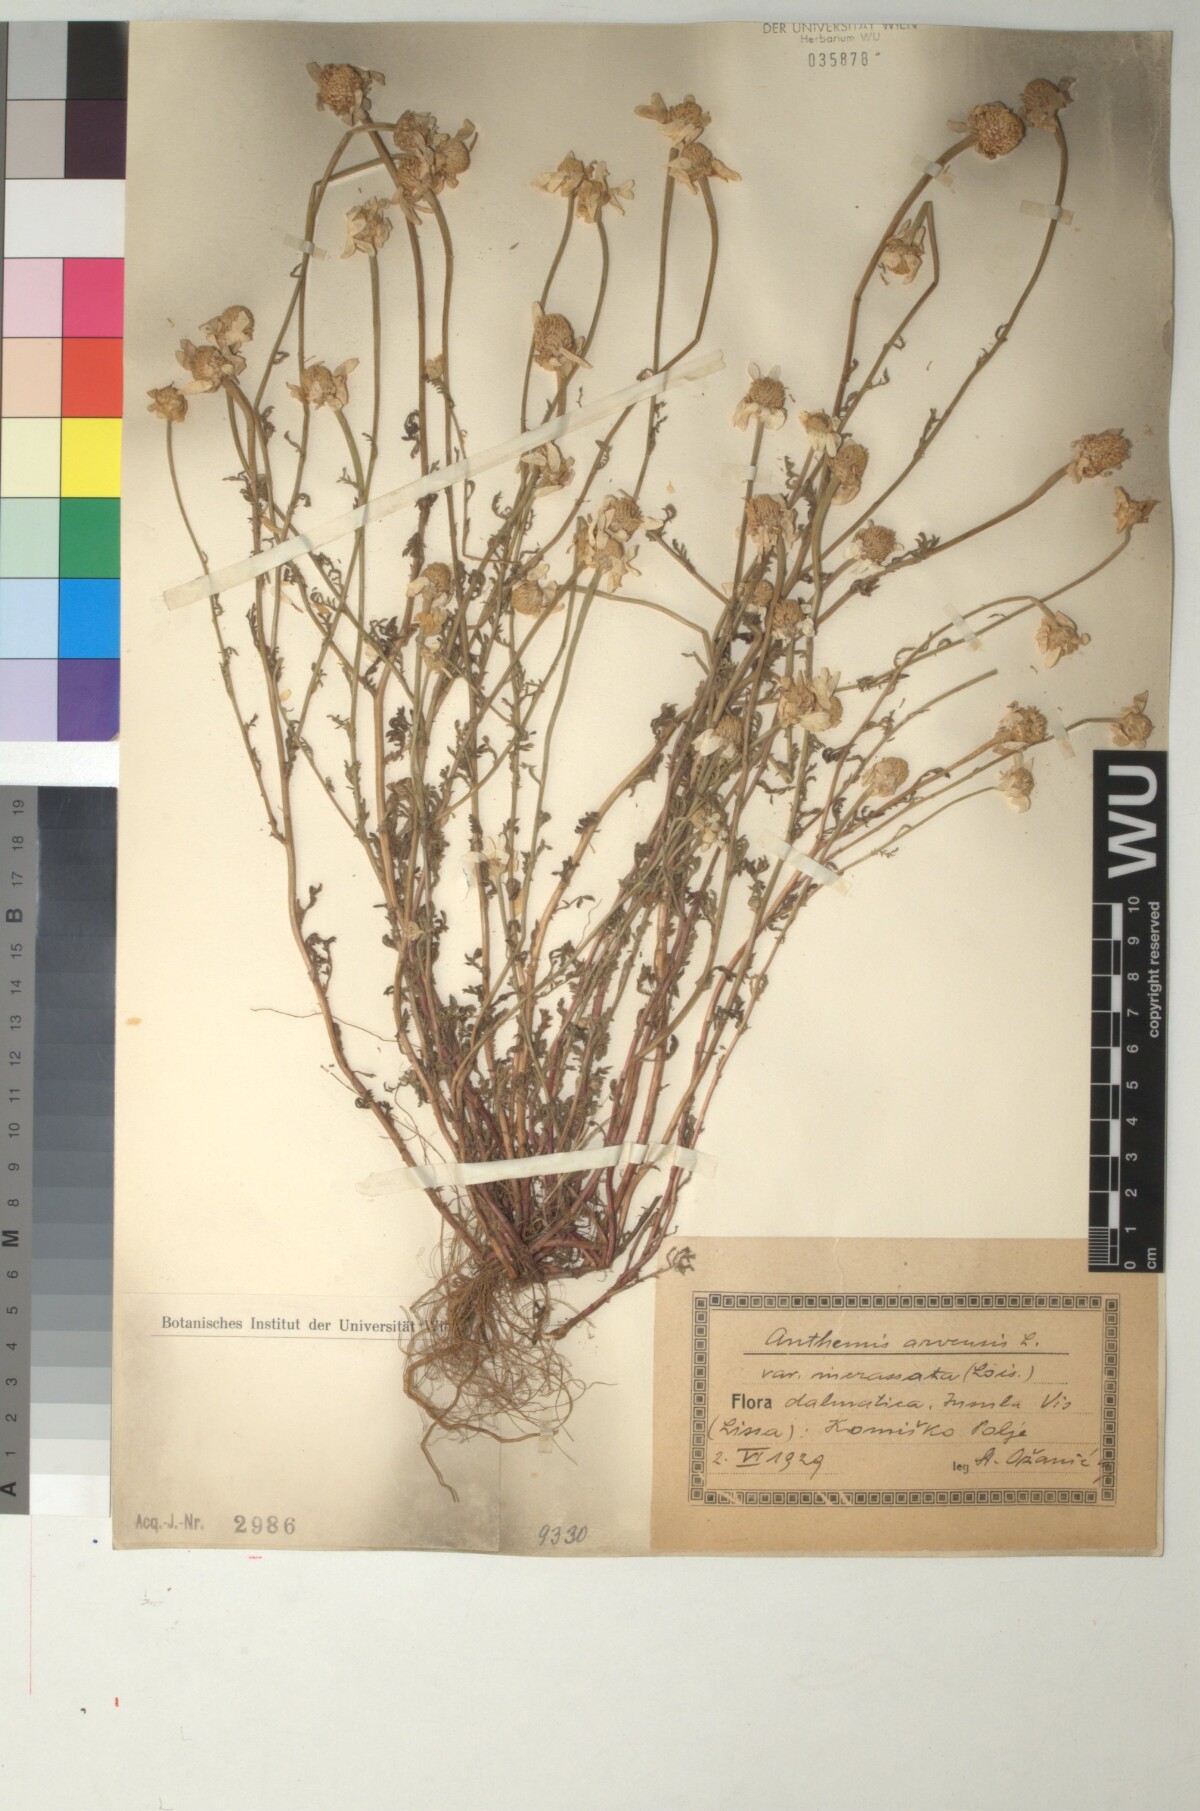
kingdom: Plantae
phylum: Tracheophyta
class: Magnoliopsida
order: Asterales
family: Asteraceae
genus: Anthemis
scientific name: Anthemis arvensis
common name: Corn chamomile
